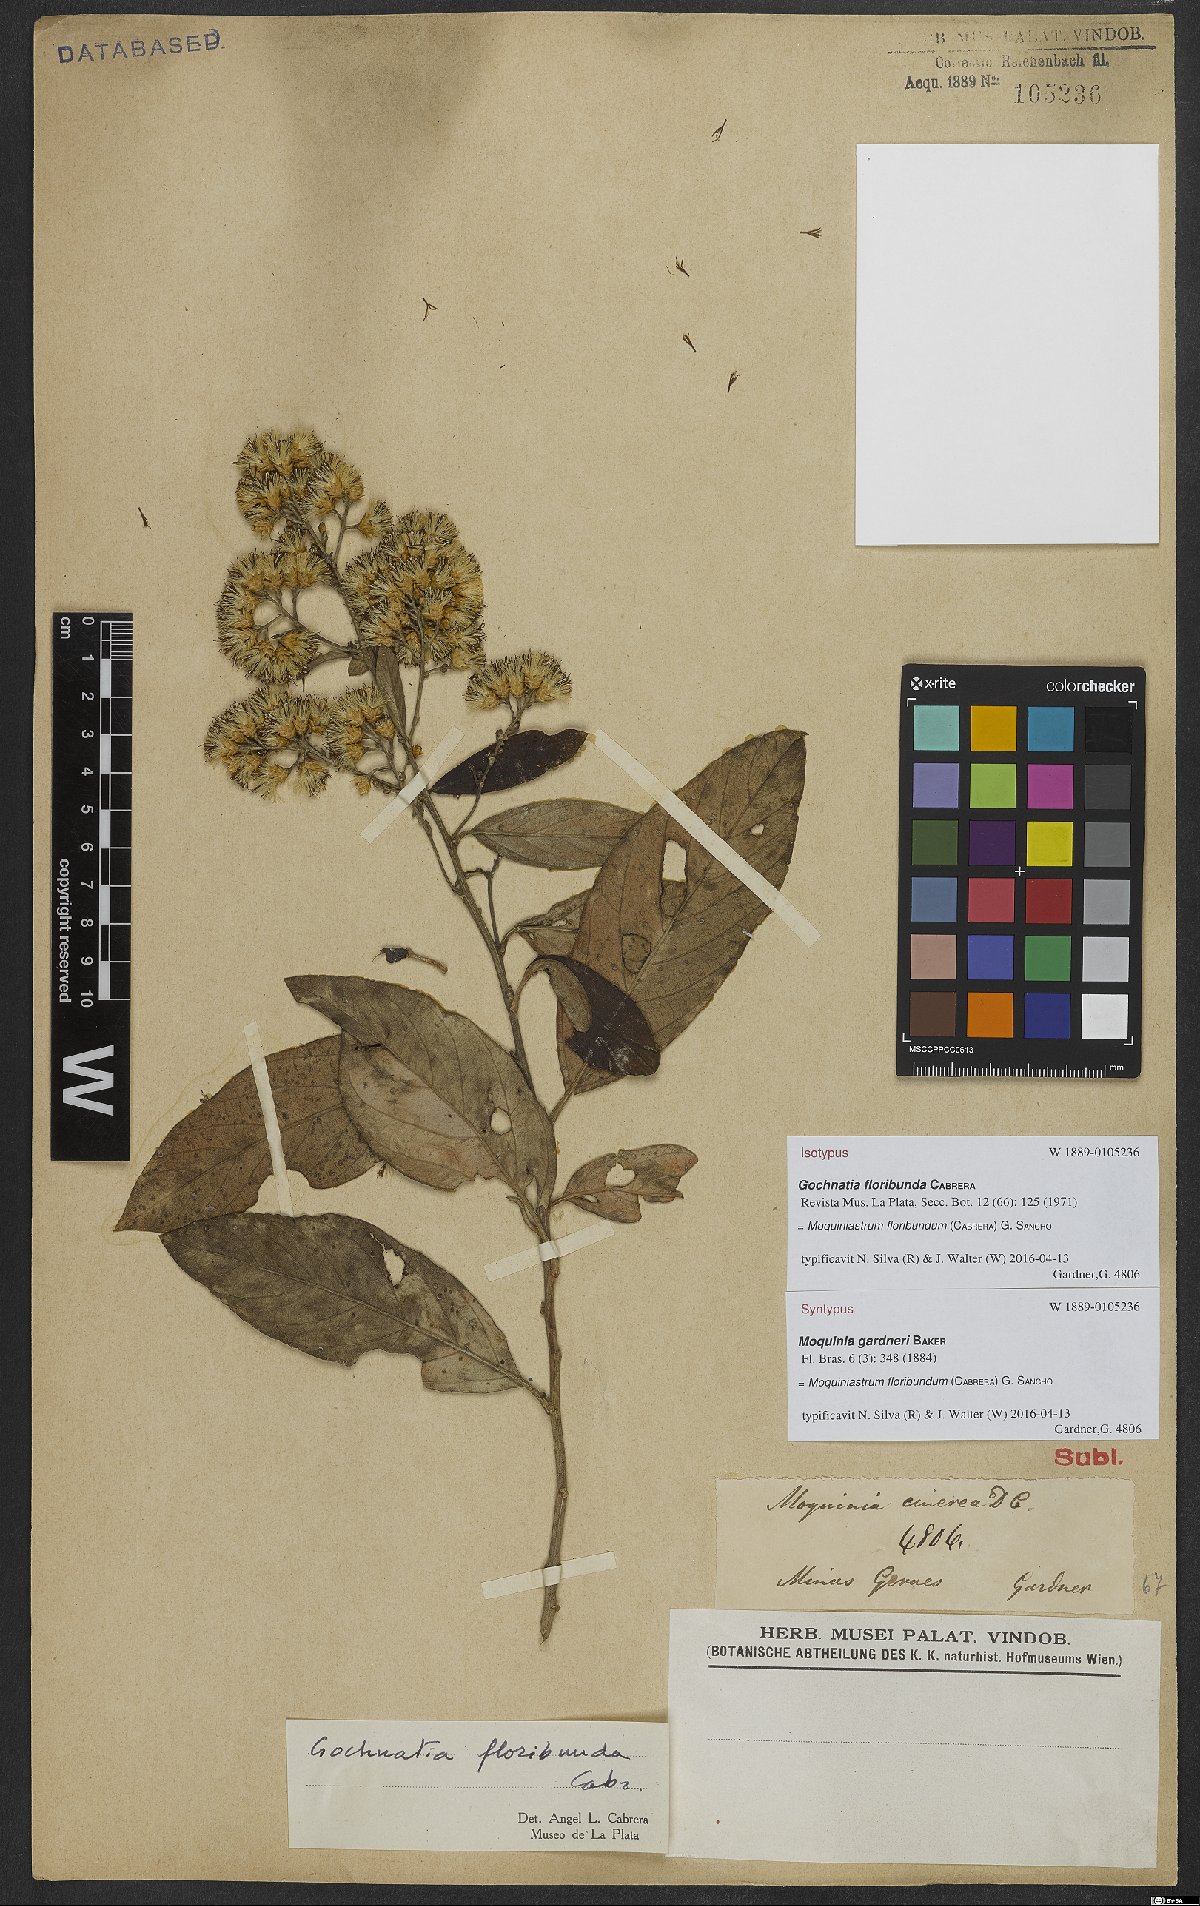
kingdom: Plantae
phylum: Tracheophyta
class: Magnoliopsida
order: Asterales
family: Asteraceae
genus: Moquiniastrum
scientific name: Moquiniastrum floribundum
